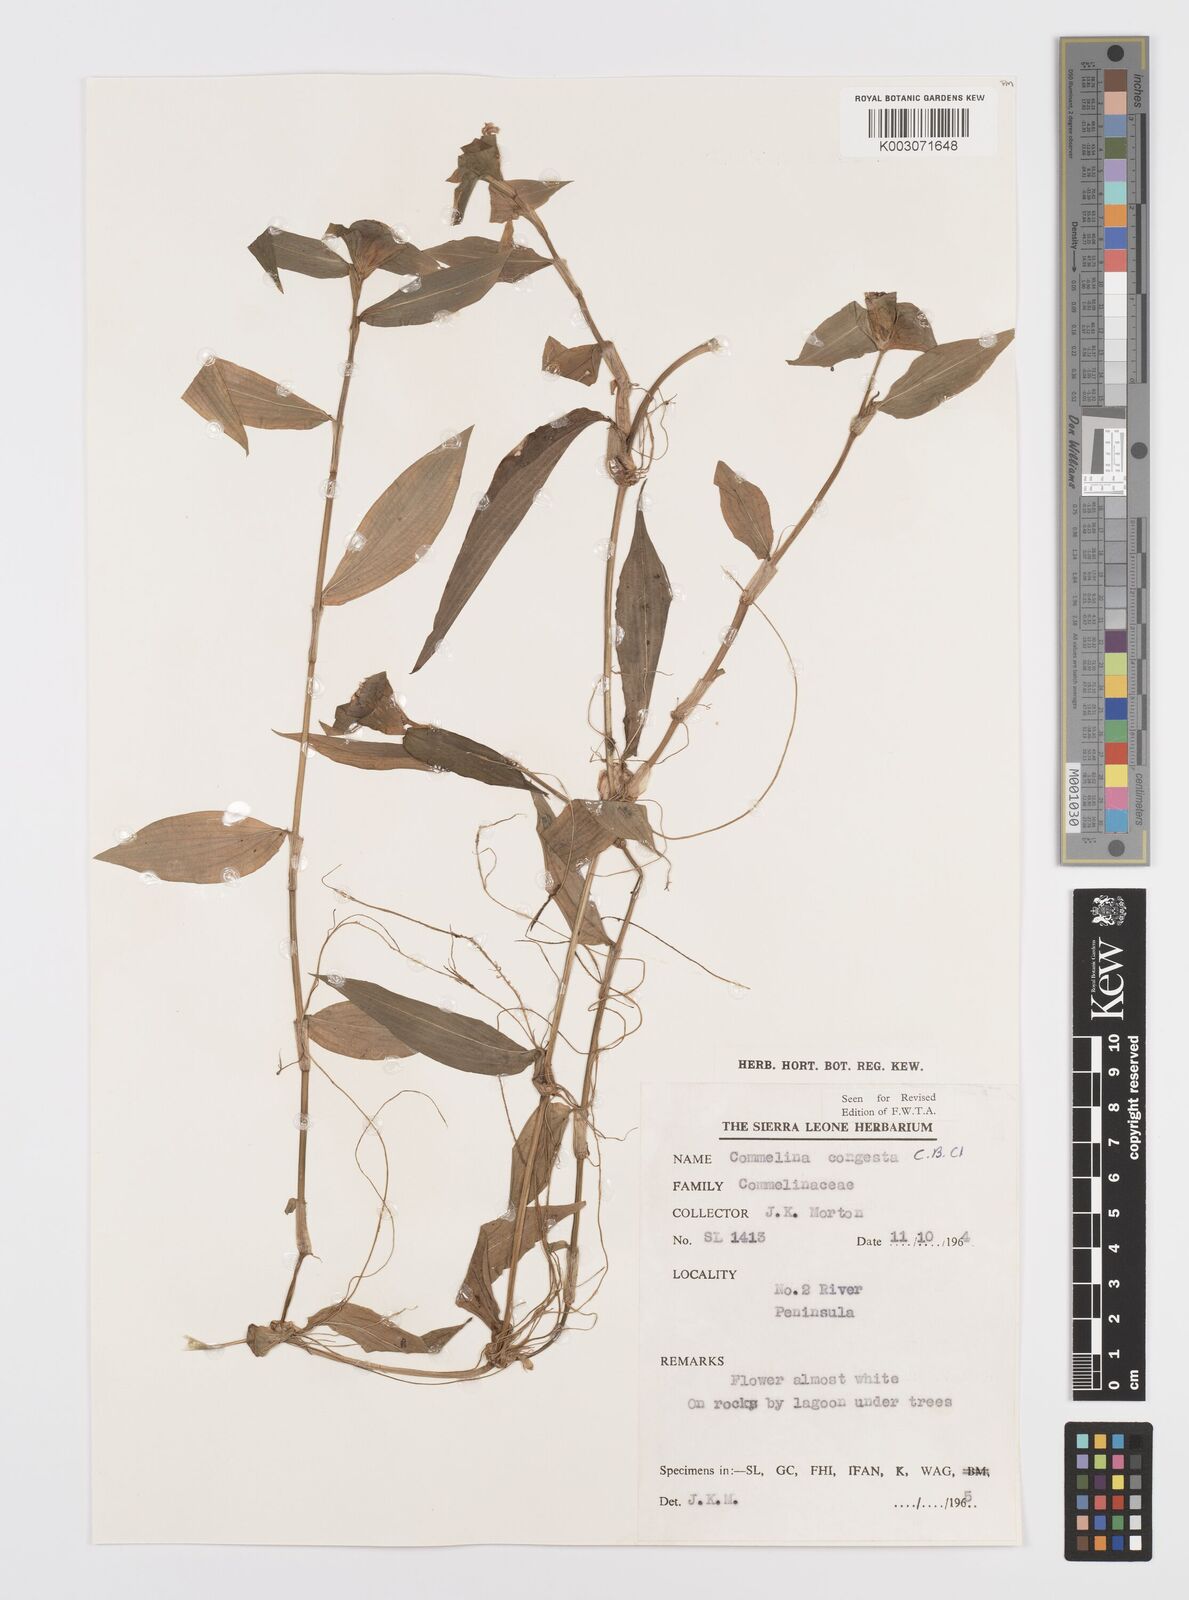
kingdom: Plantae
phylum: Tracheophyta
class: Liliopsida
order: Commelinales
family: Commelinaceae
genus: Commelina
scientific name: Commelina congesta
